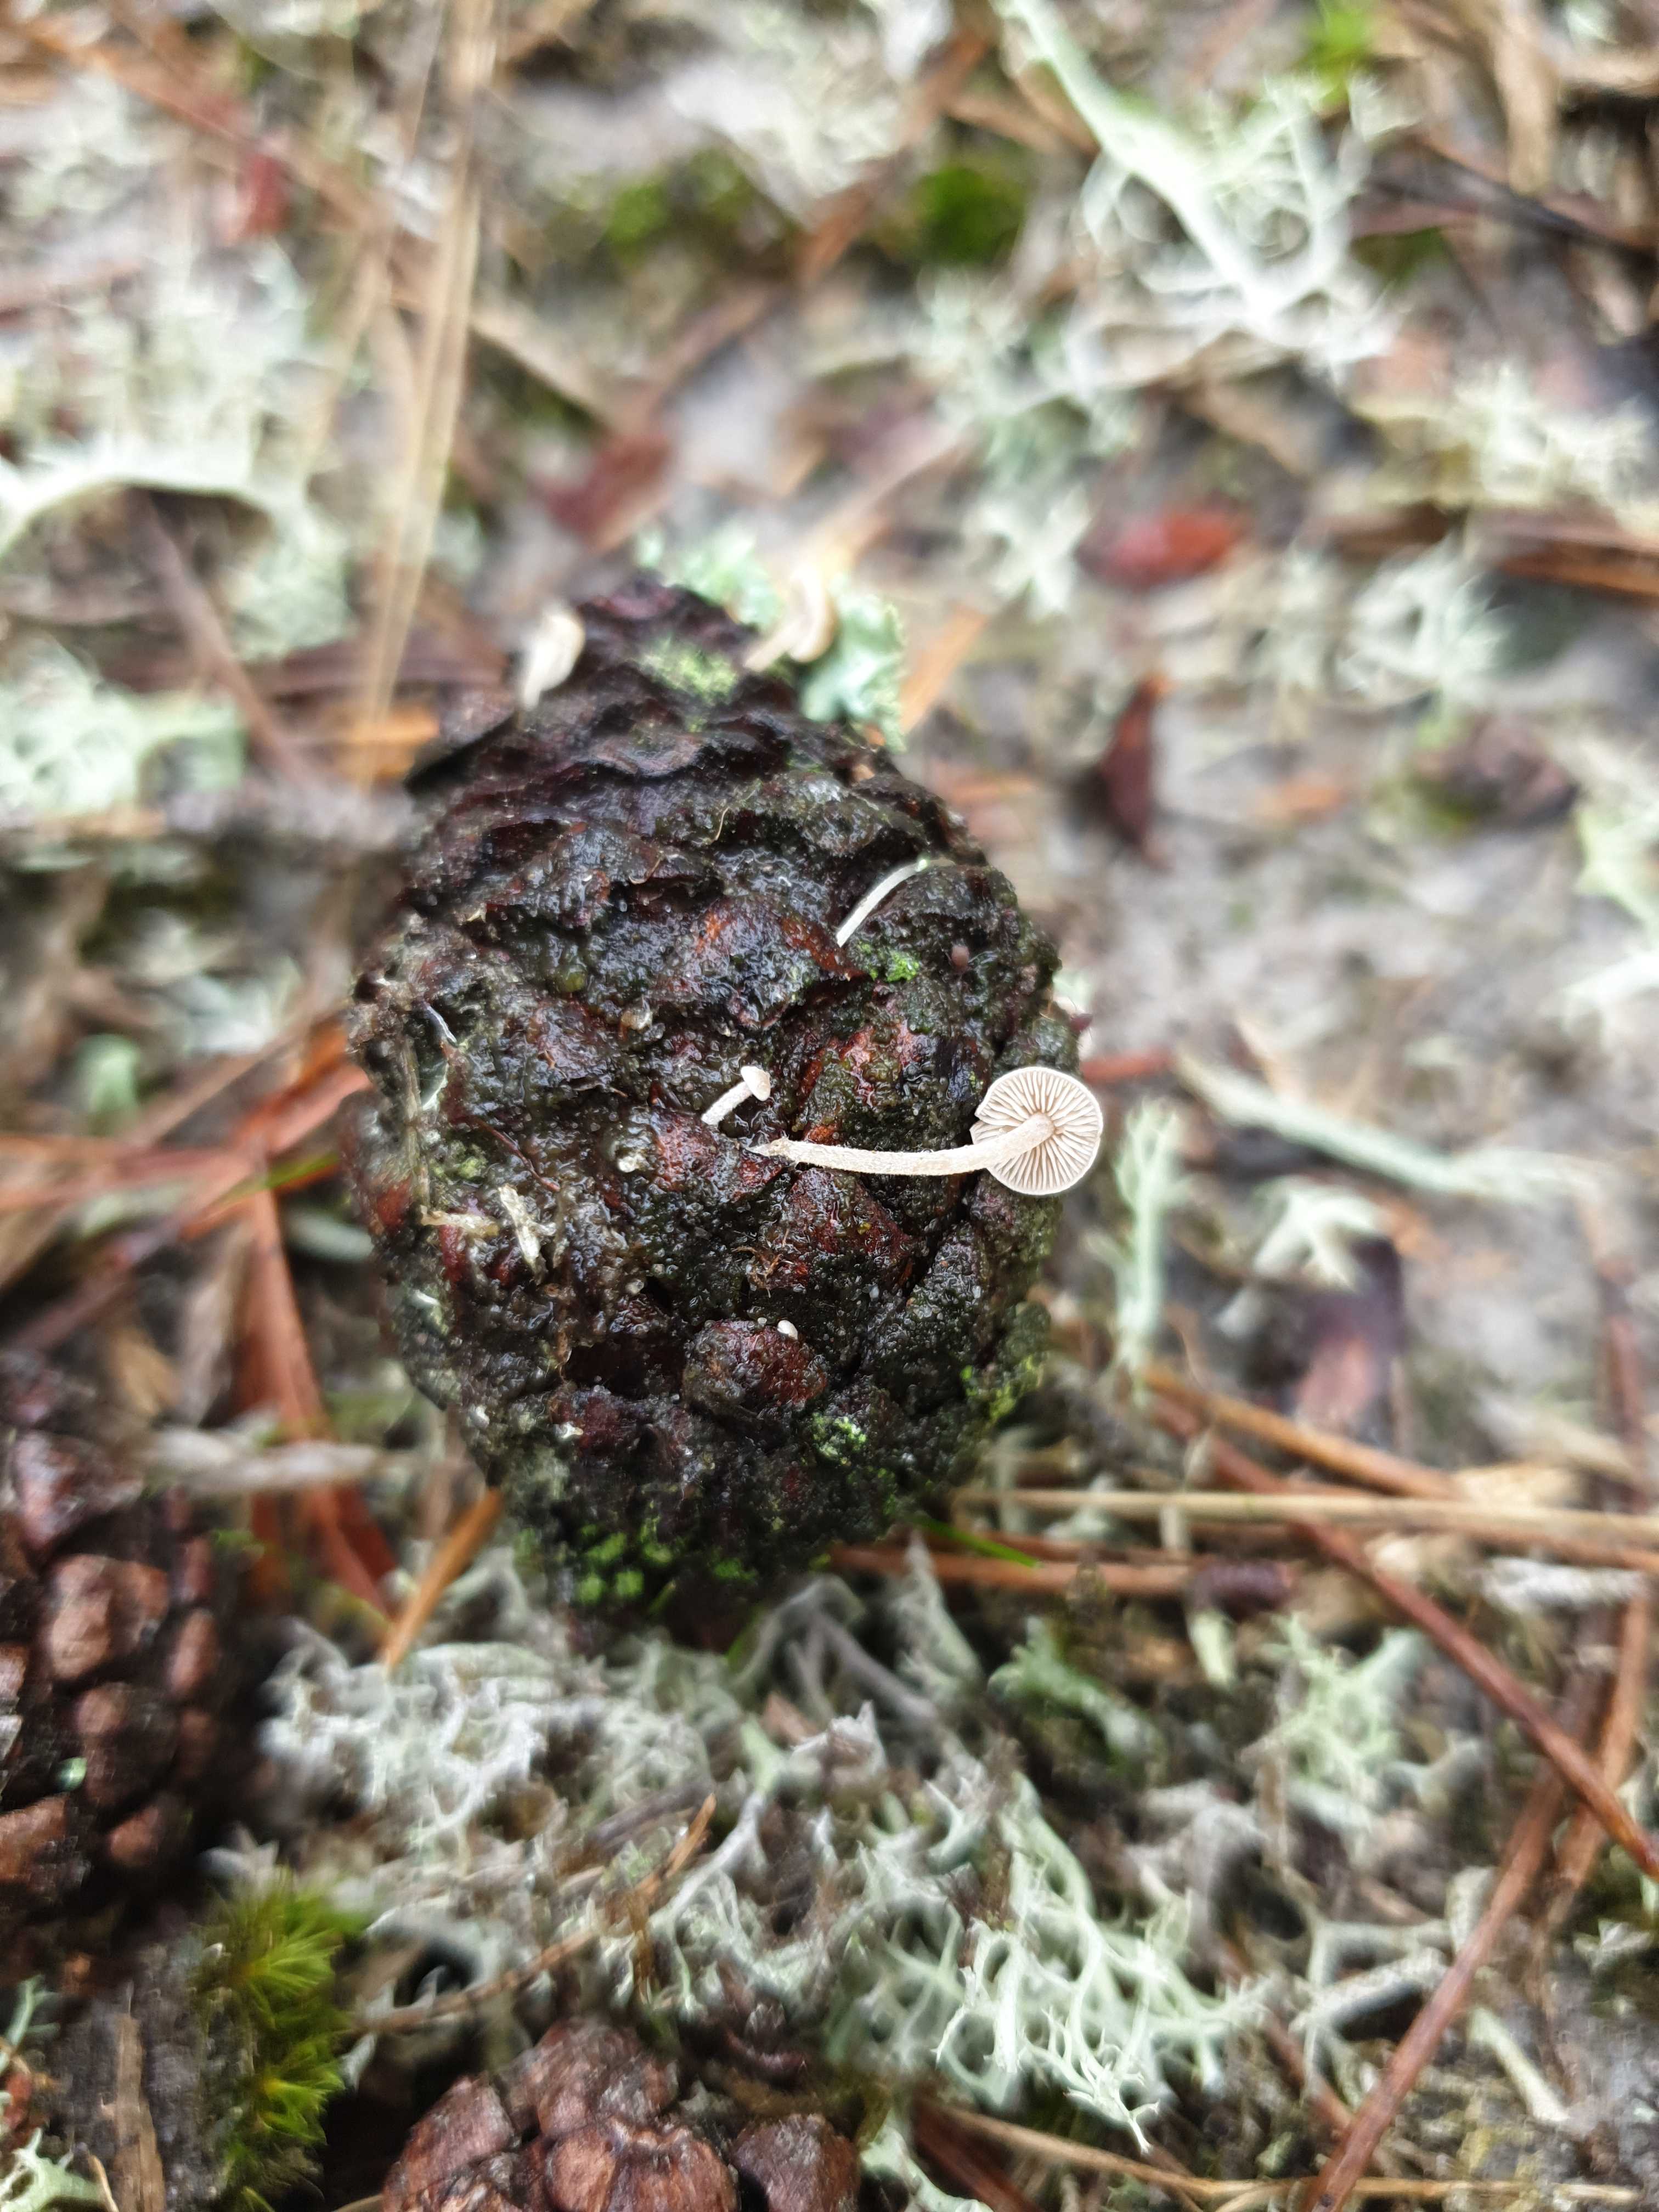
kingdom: Fungi
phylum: Basidiomycota
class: Agaricomycetes
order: Agaricales
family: Marasmiaceae
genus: Baeospora
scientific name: Baeospora myosura
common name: koglebruskhat
